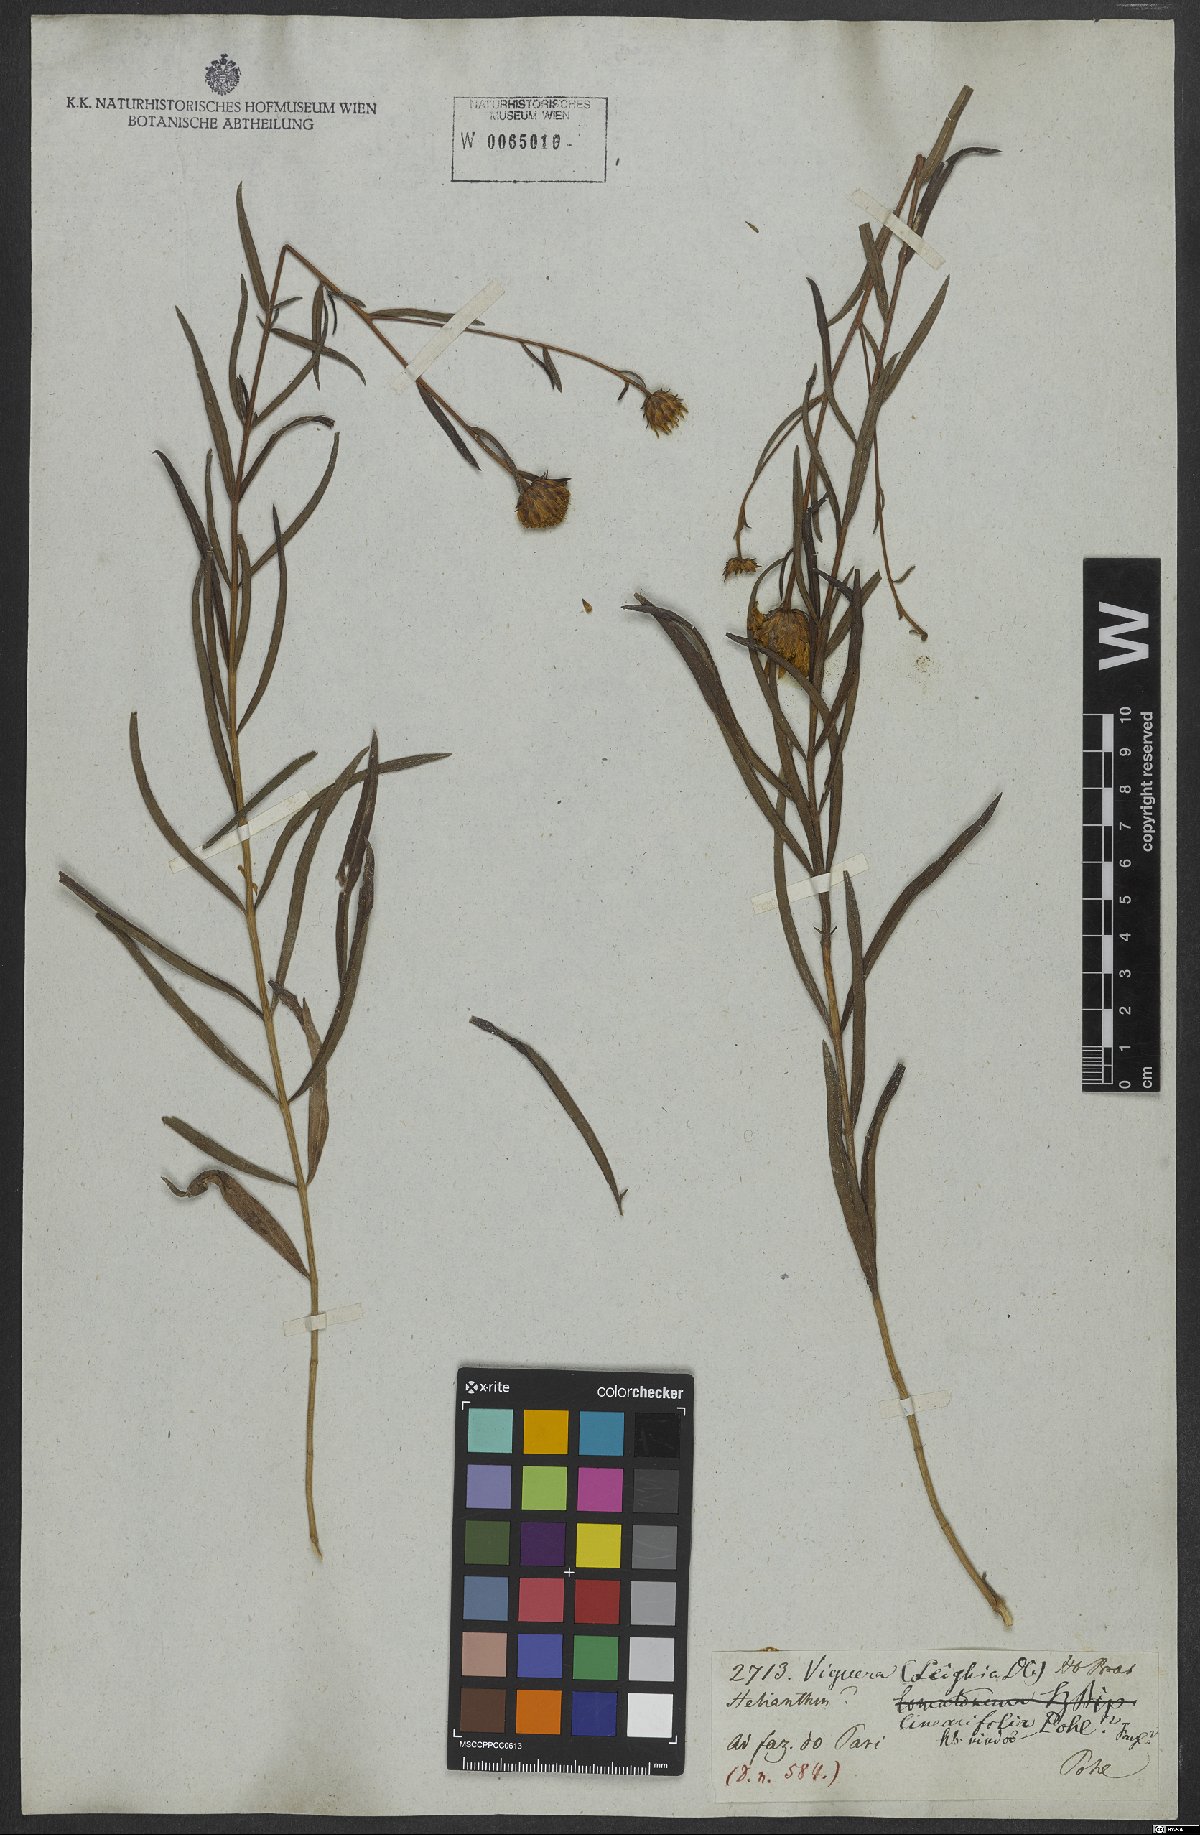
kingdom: Plantae
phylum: Tracheophyta
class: Magnoliopsida
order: Asterales
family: Asteraceae
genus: Aldama
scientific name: Aldama bracteata
